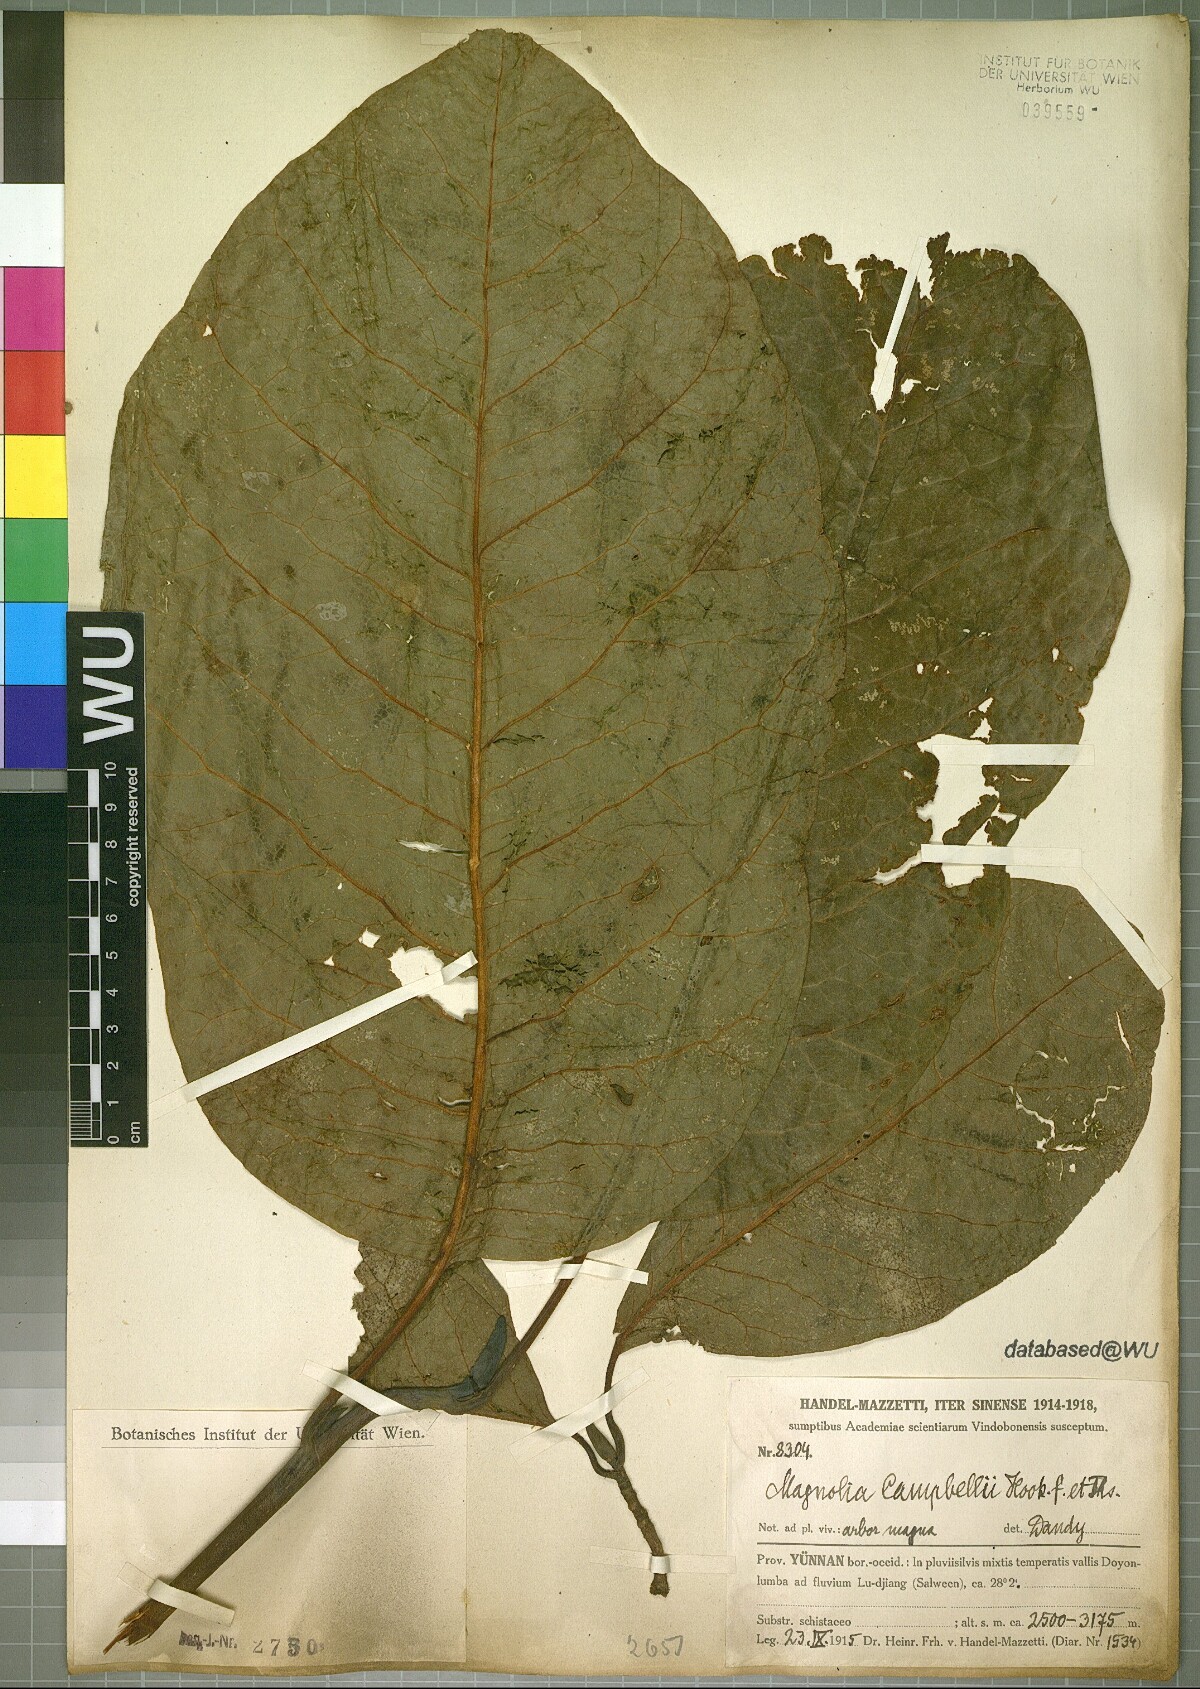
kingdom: Plantae
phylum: Tracheophyta
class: Magnoliopsida
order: Magnoliales
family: Magnoliaceae
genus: Magnolia
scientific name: Magnolia campbellii
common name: Campbell's magnolia
